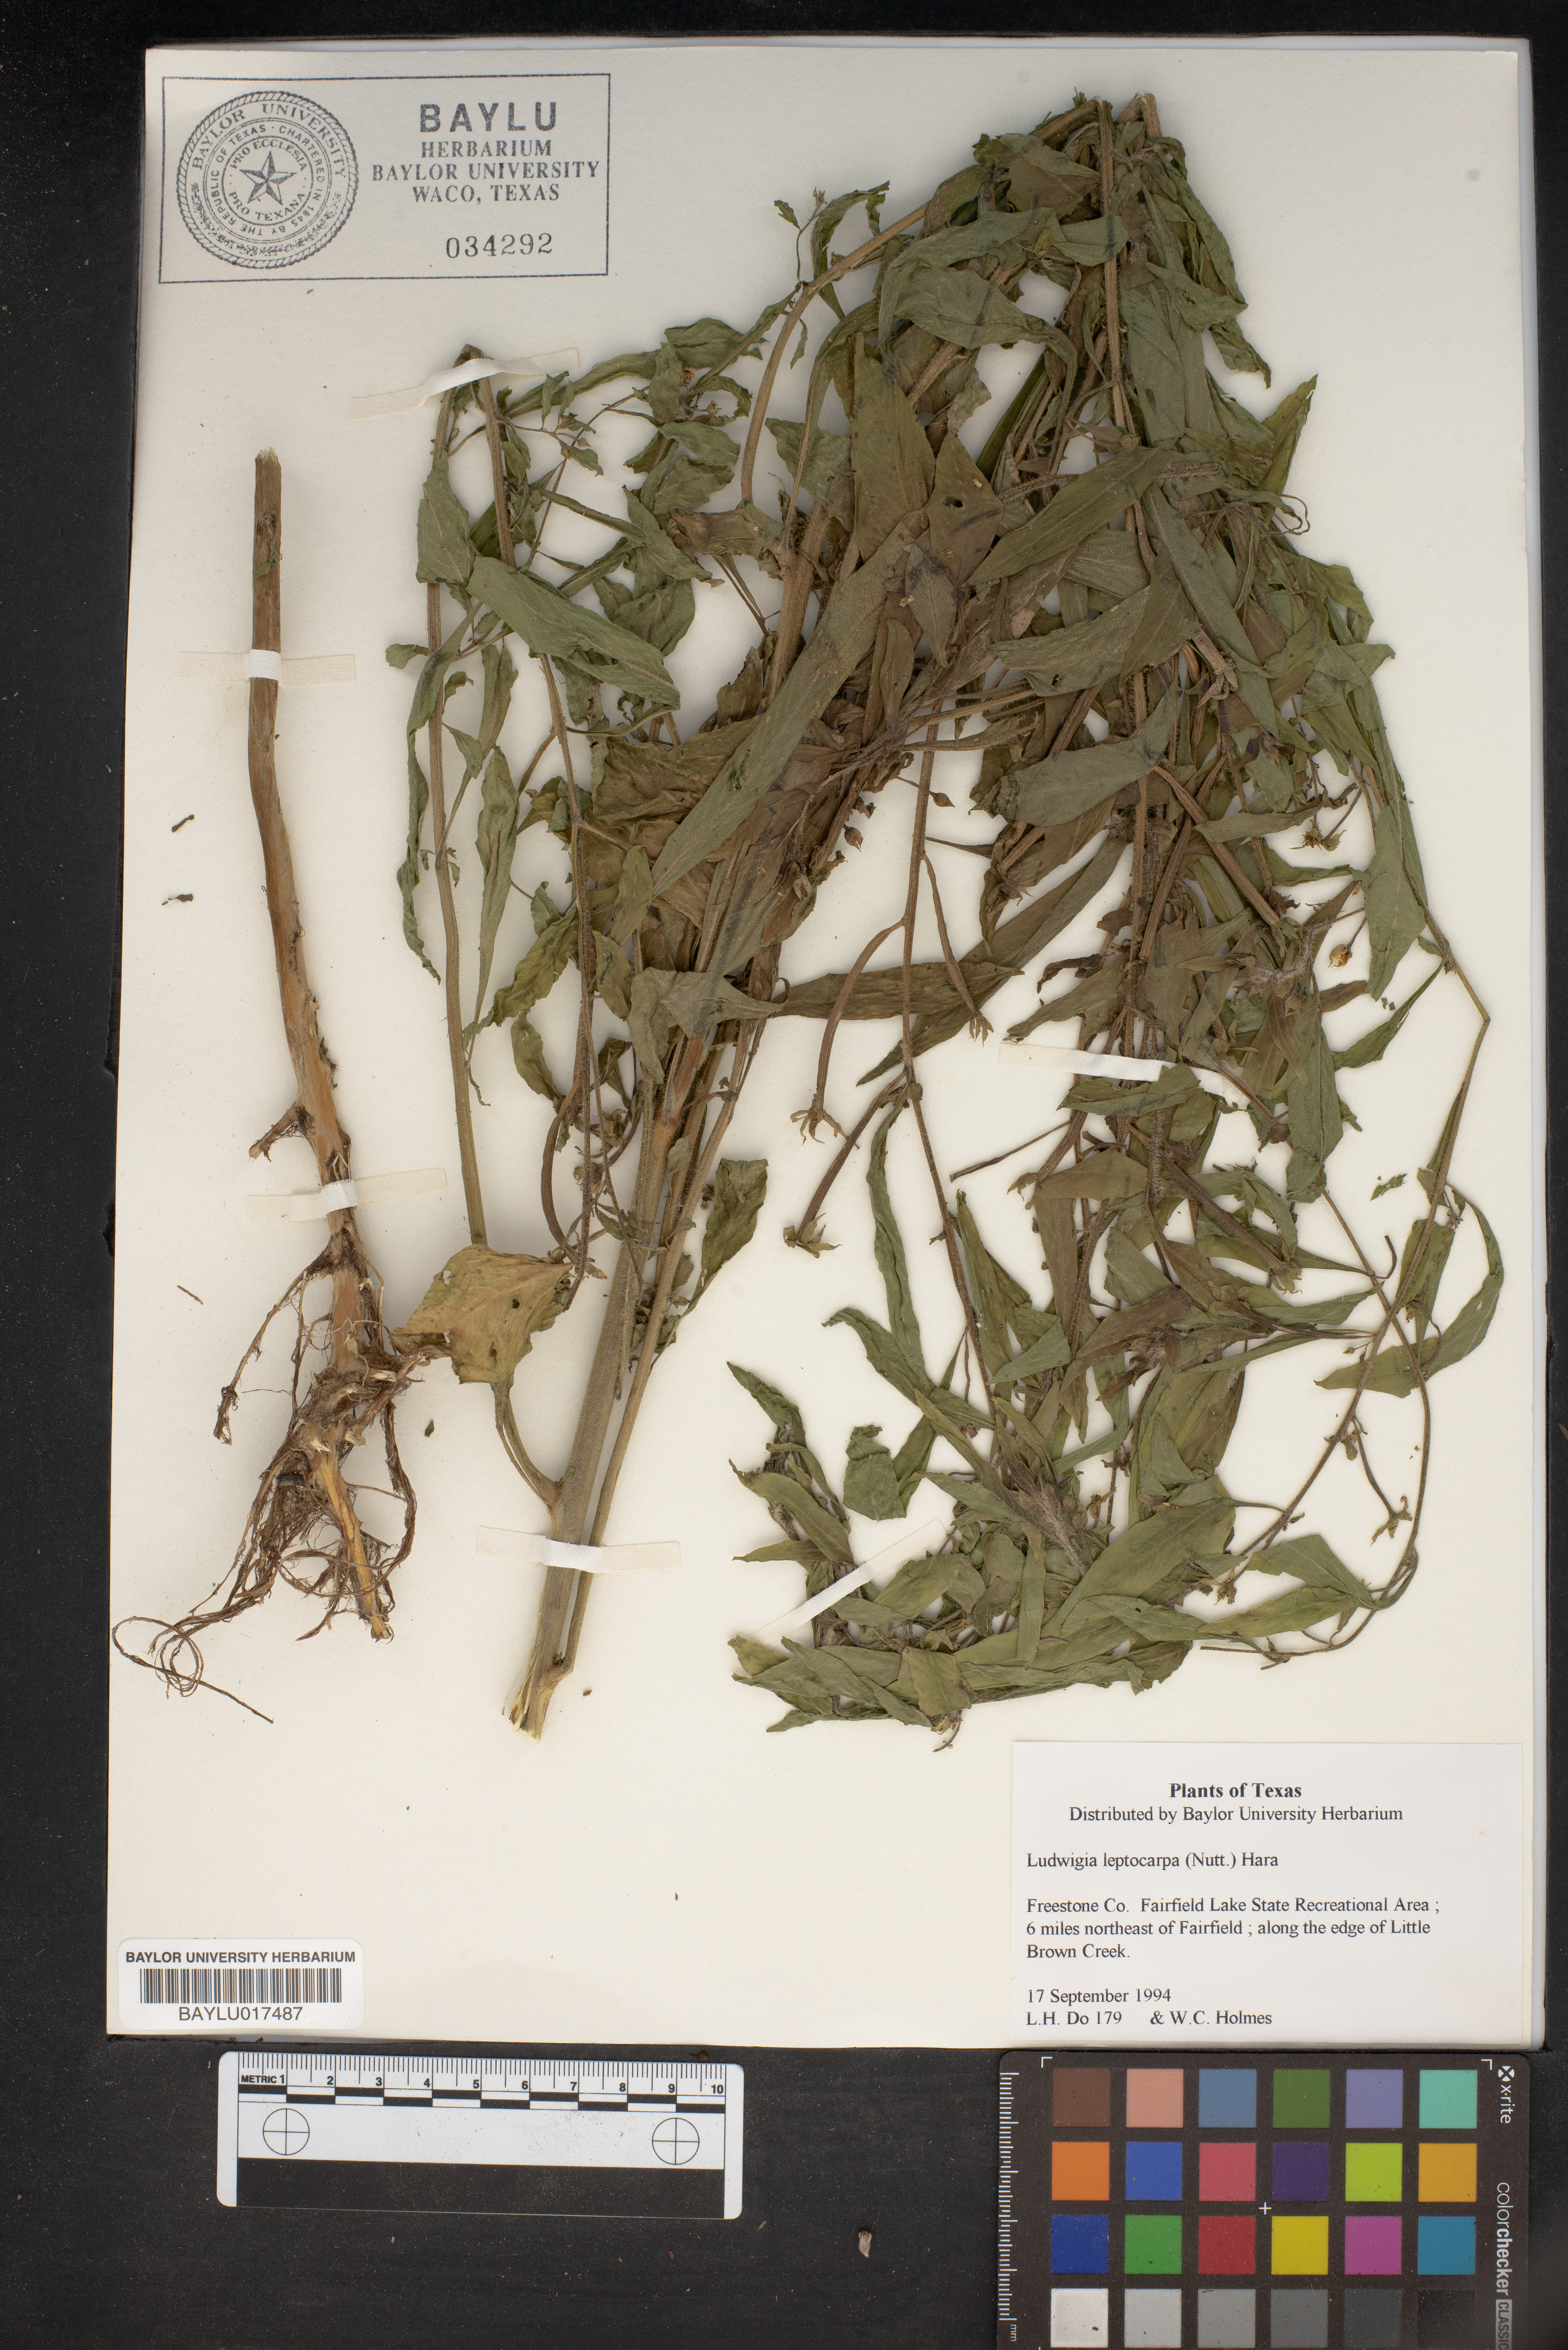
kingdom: Plantae
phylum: Tracheophyta
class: Magnoliopsida
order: Myrtales
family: Onagraceae
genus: Ludwigia
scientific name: Ludwigia leptocarpa
